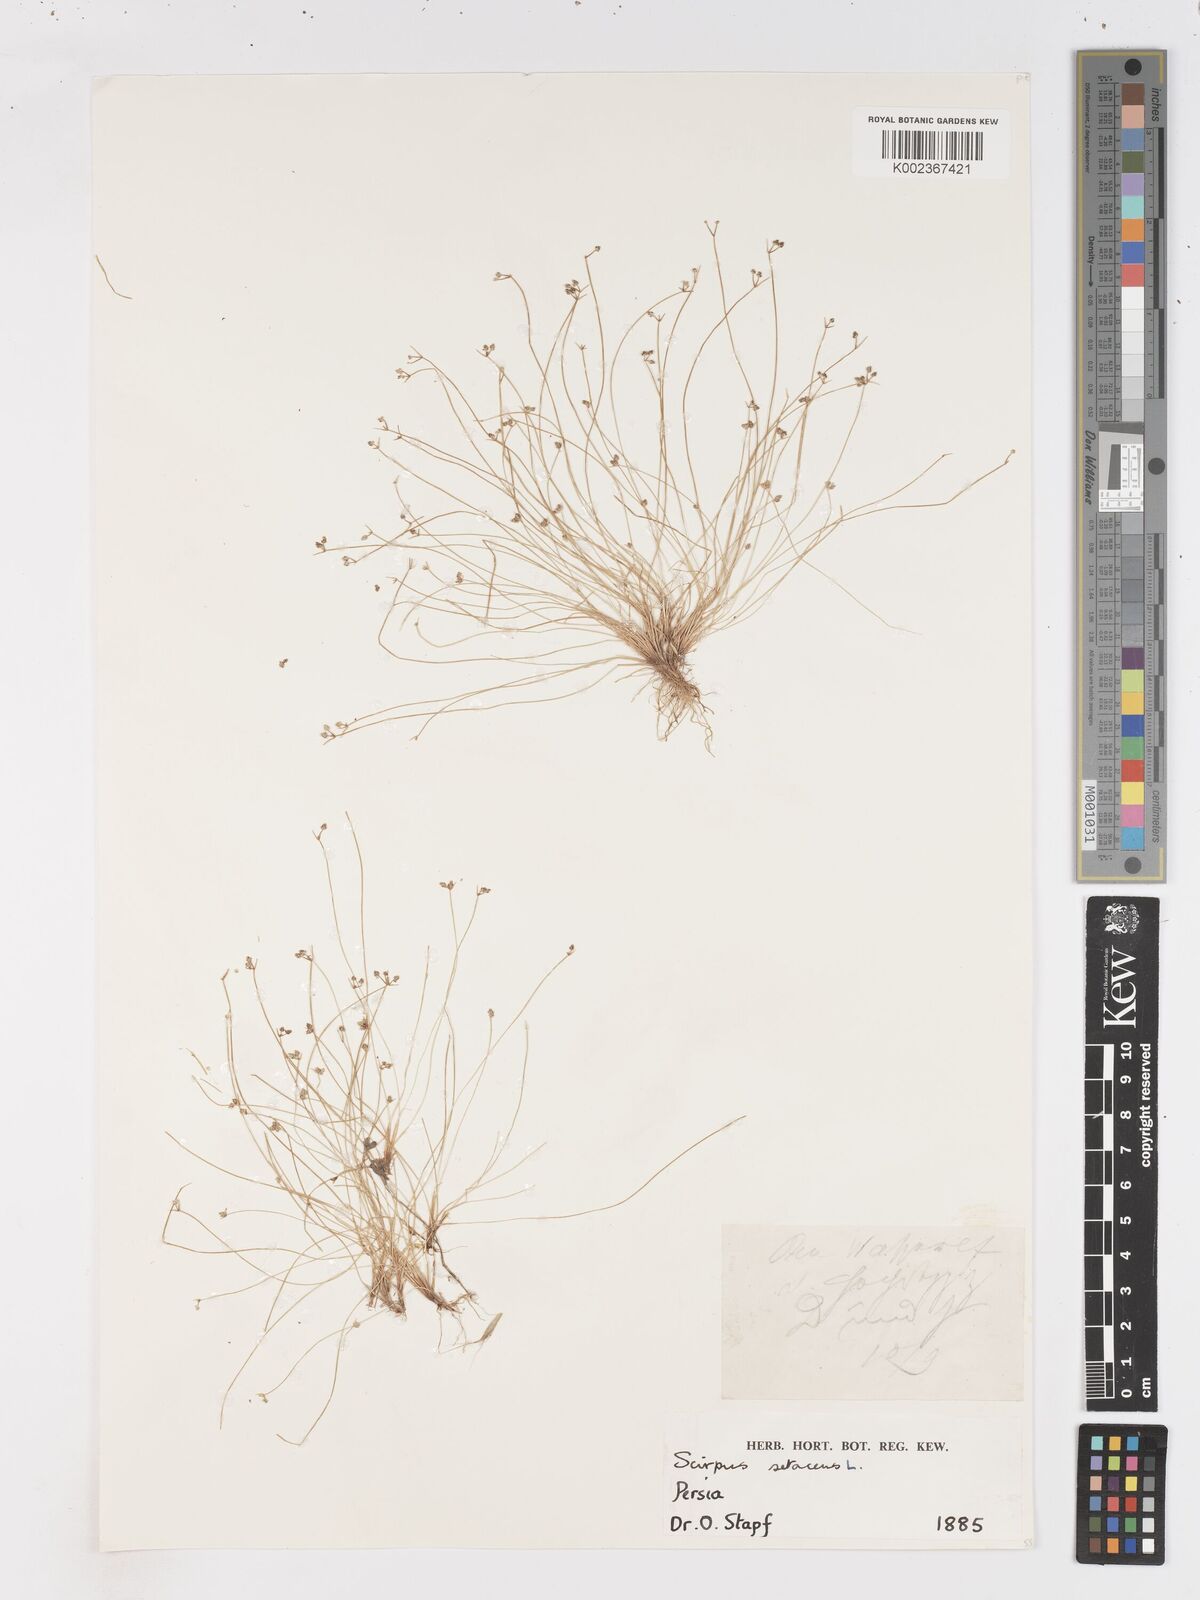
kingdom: Plantae
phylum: Tracheophyta
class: Liliopsida
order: Poales
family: Cyperaceae
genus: Isolepis
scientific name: Isolepis setacea
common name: Bristle club-rush
